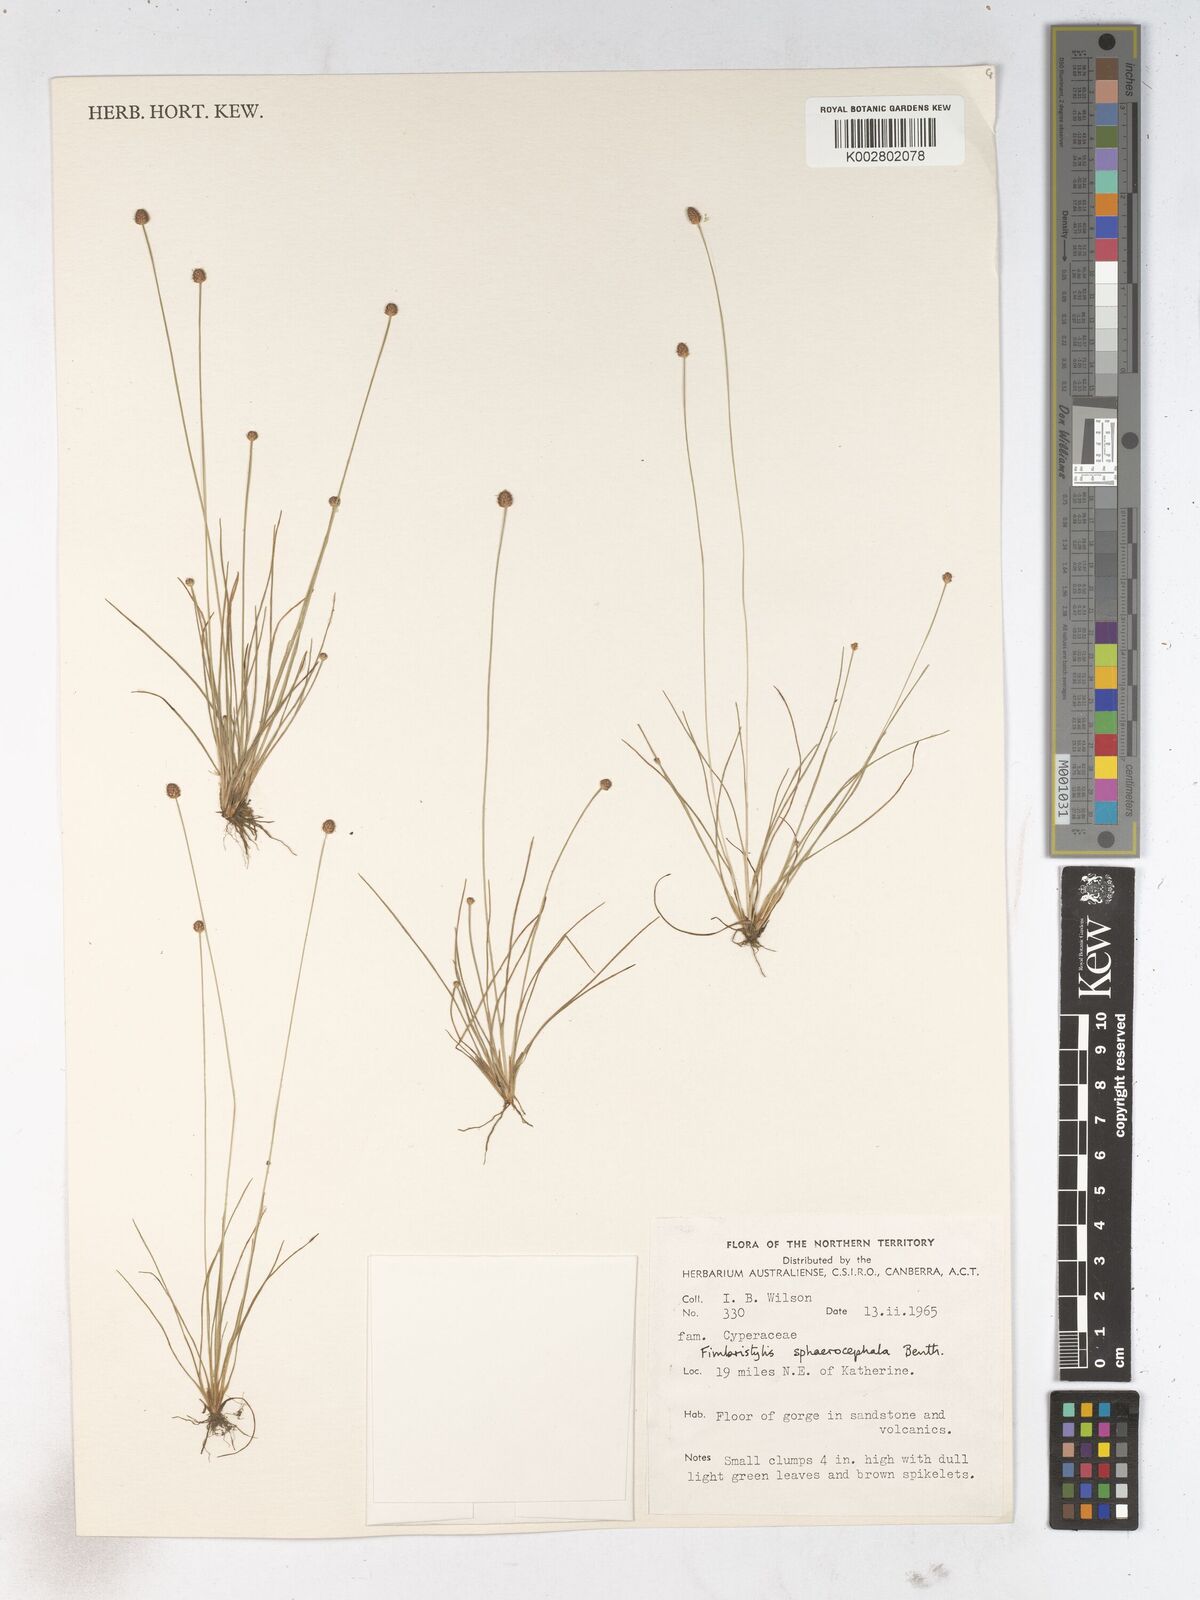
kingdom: Plantae
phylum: Tracheophyta
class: Liliopsida
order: Poales
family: Cyperaceae
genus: Fimbristylis
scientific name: Fimbristylis sphaerocephala
